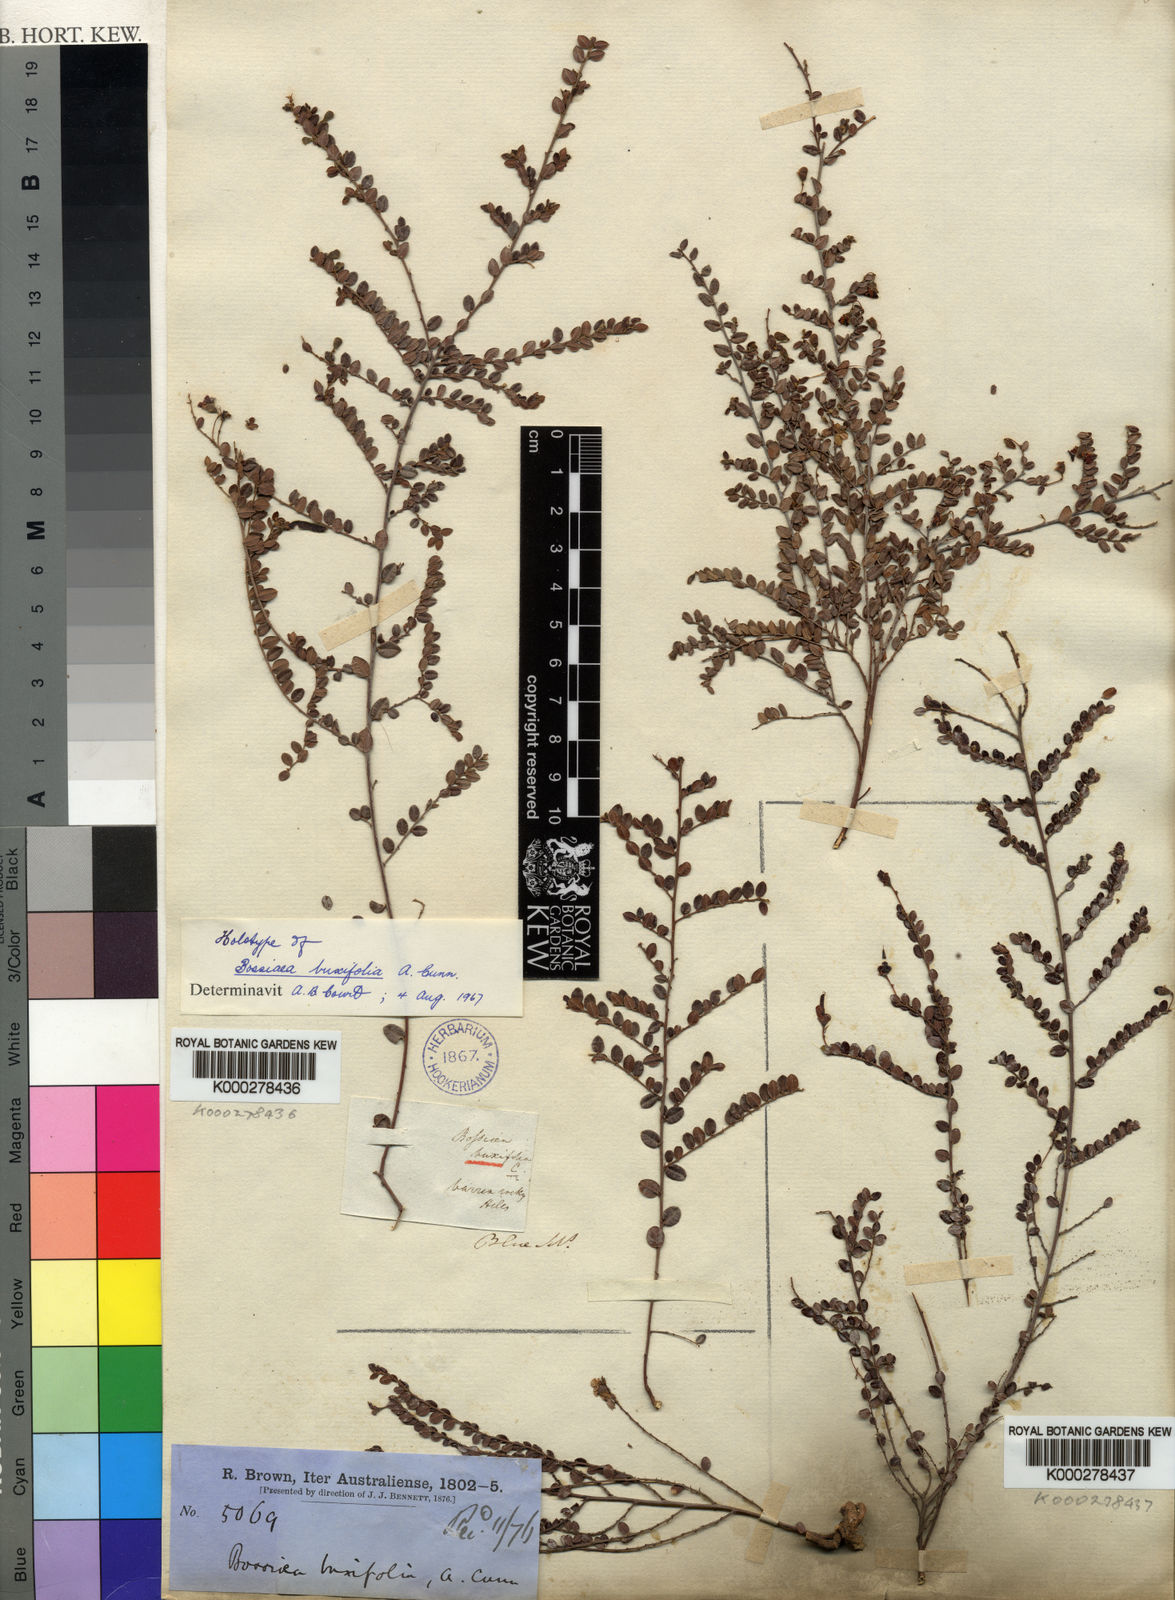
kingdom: Plantae
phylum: Tracheophyta
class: Magnoliopsida
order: Fabales
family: Fabaceae
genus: Bossiaea
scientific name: Bossiaea buxifolia
